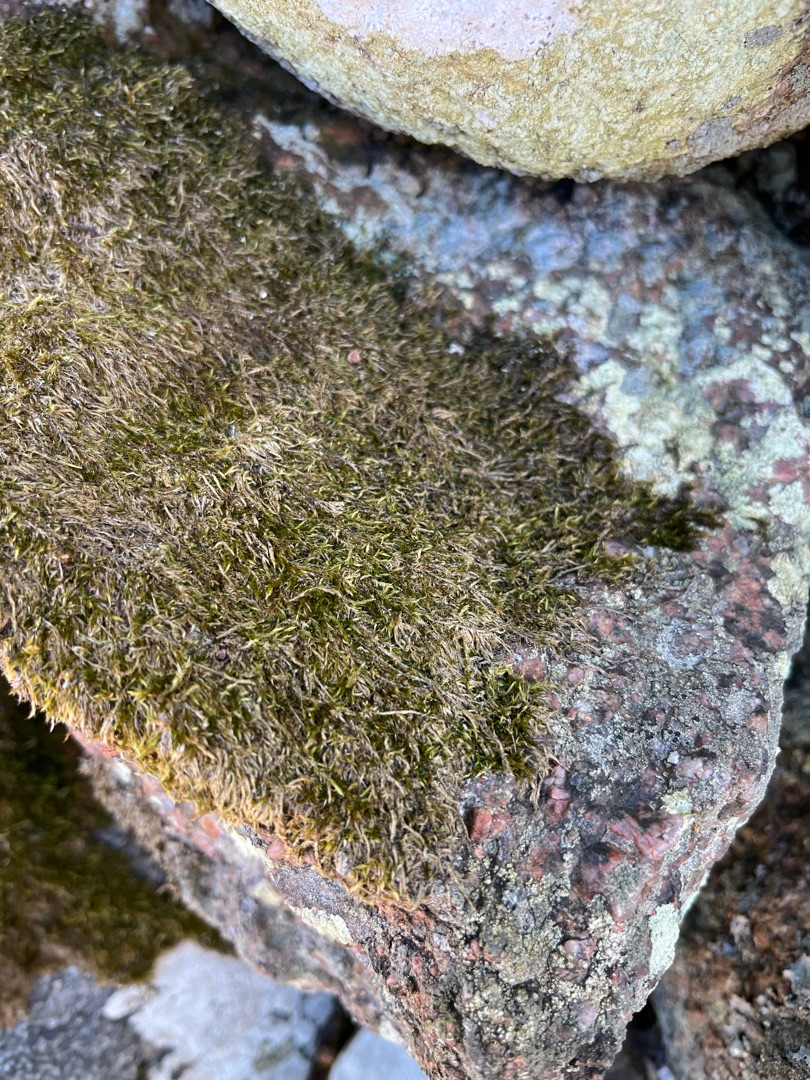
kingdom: Plantae
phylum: Bryophyta
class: Bryopsida
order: Hypnales
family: Hypnaceae
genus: Hypnum
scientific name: Hypnum
